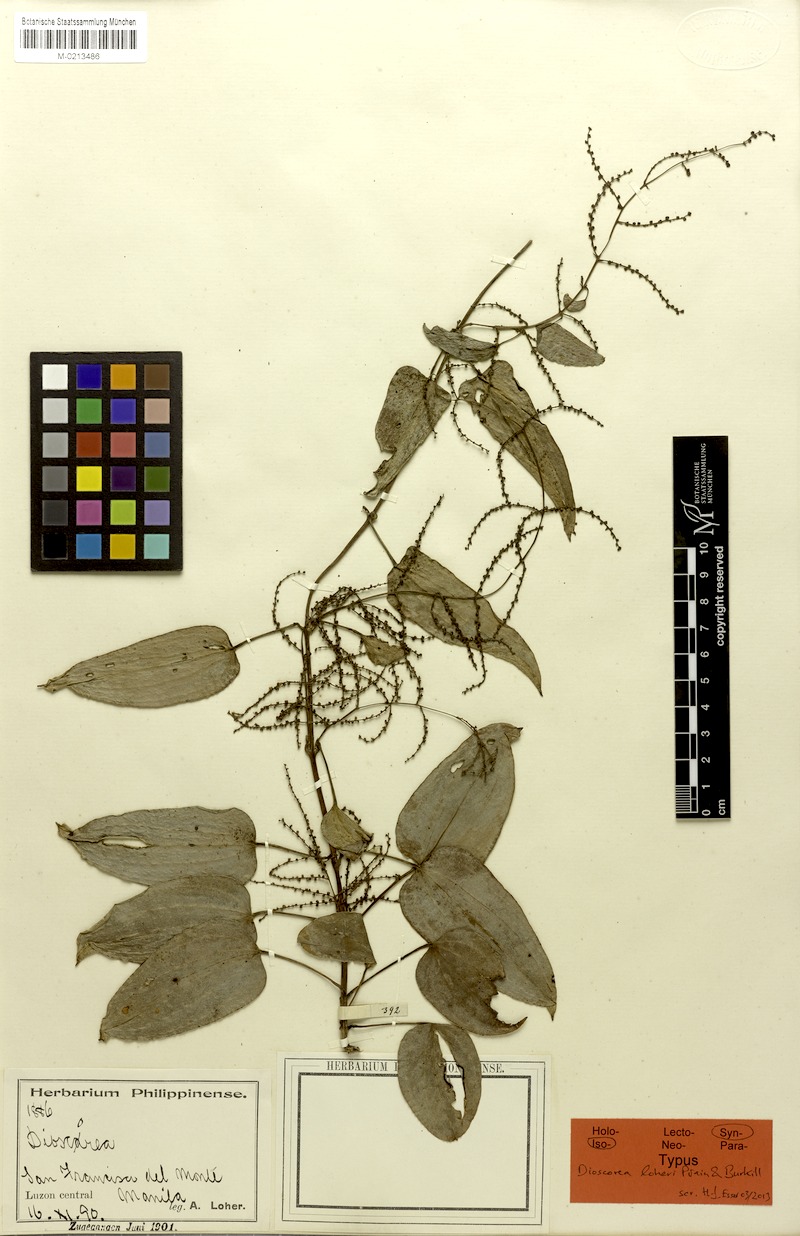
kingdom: Plantae
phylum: Tracheophyta
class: Liliopsida
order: Dioscoreales
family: Dioscoreaceae
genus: Dioscorea
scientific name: Dioscorea loheri
